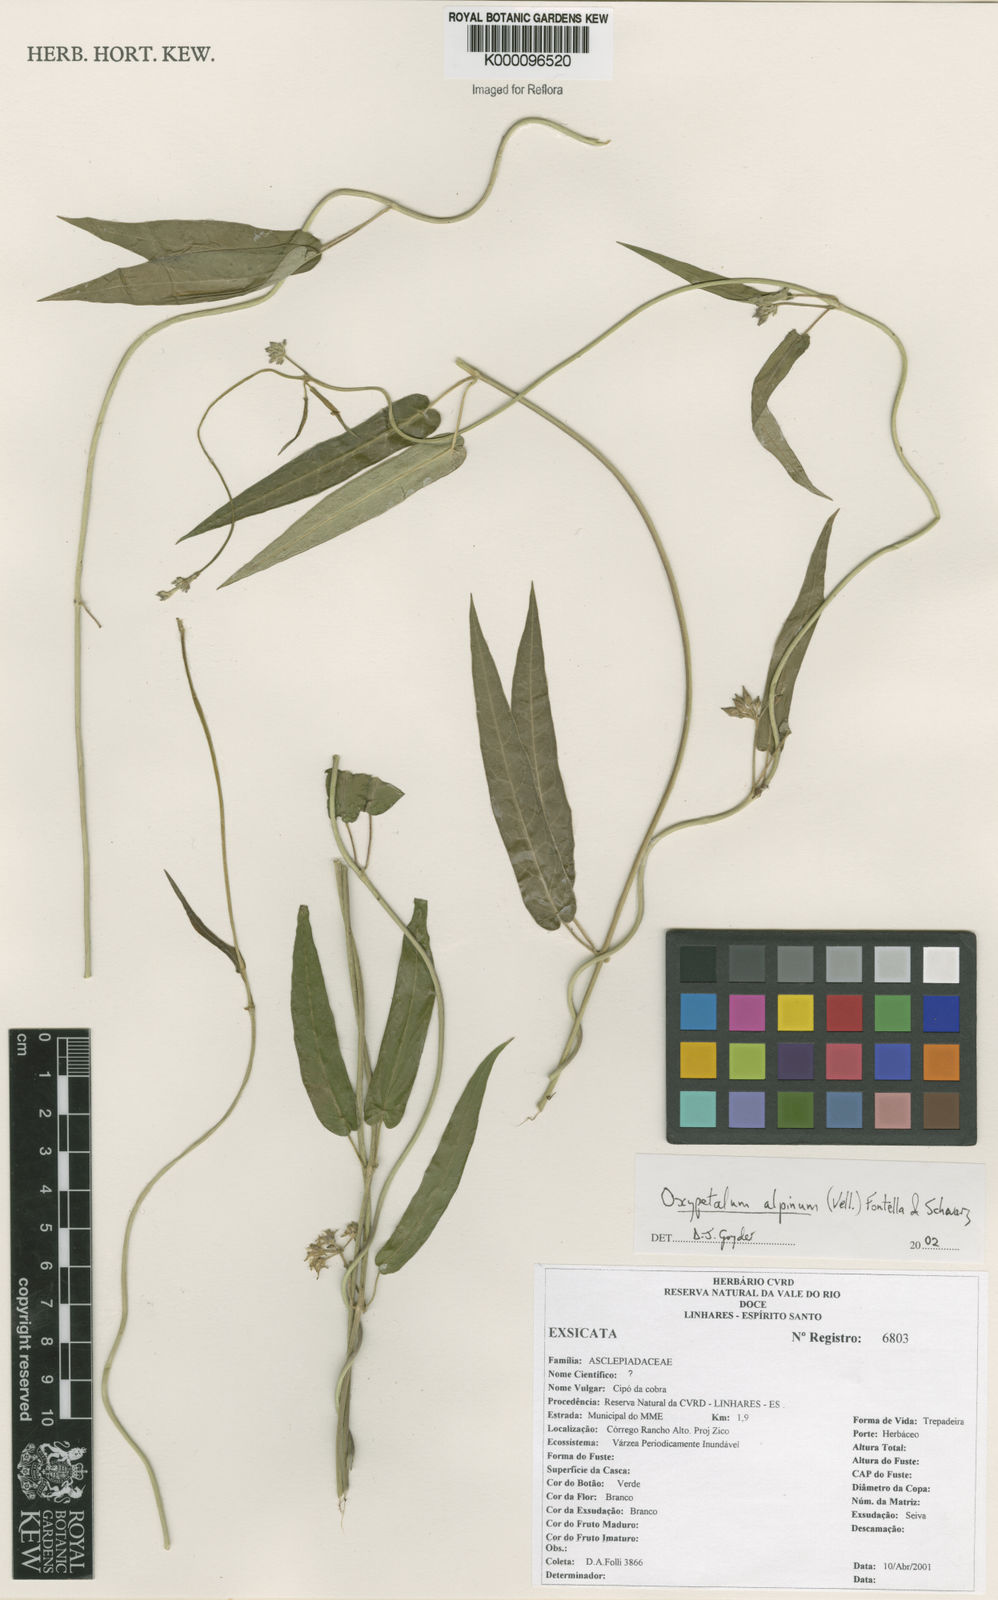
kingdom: Plantae
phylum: Tracheophyta
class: Magnoliopsida
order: Gentianales
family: Apocynaceae
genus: Oxypetalum
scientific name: Oxypetalum alpinum
